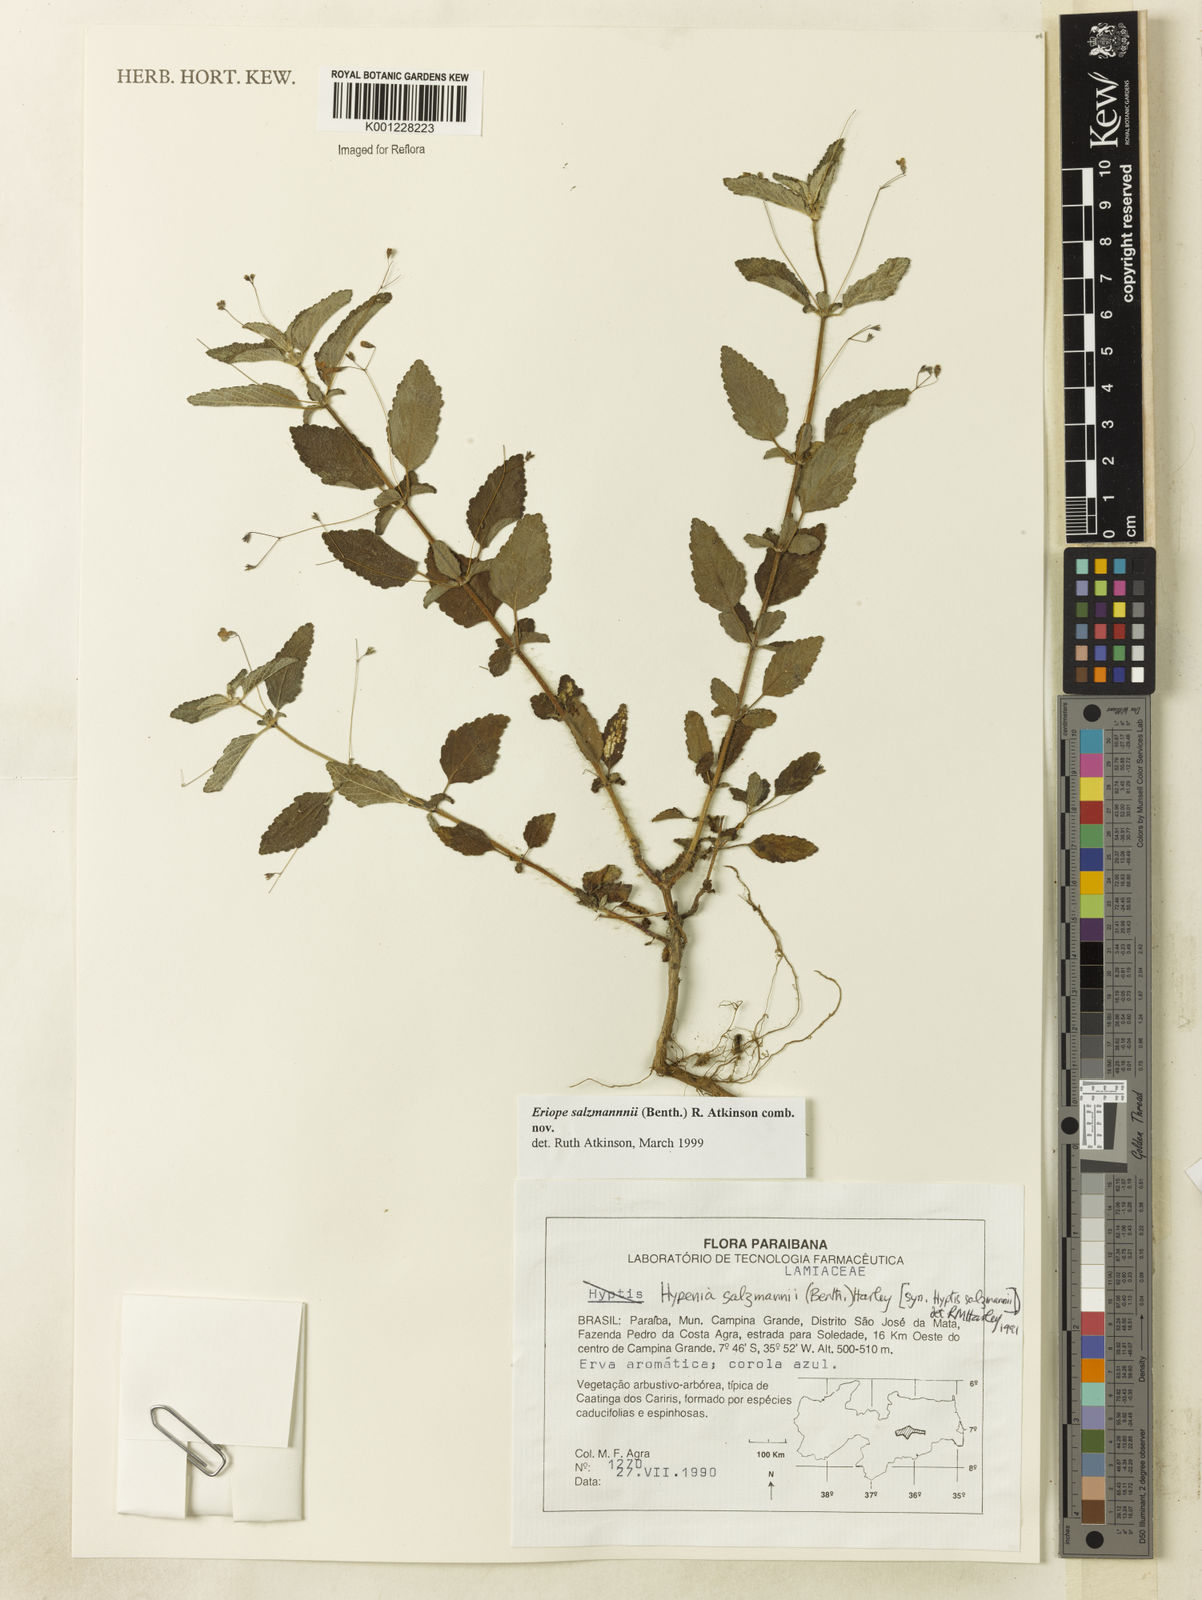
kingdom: Plantae
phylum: Tracheophyta
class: Magnoliopsida
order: Lamiales
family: Lamiaceae
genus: Hypenia
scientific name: Hypenia salzmannii
